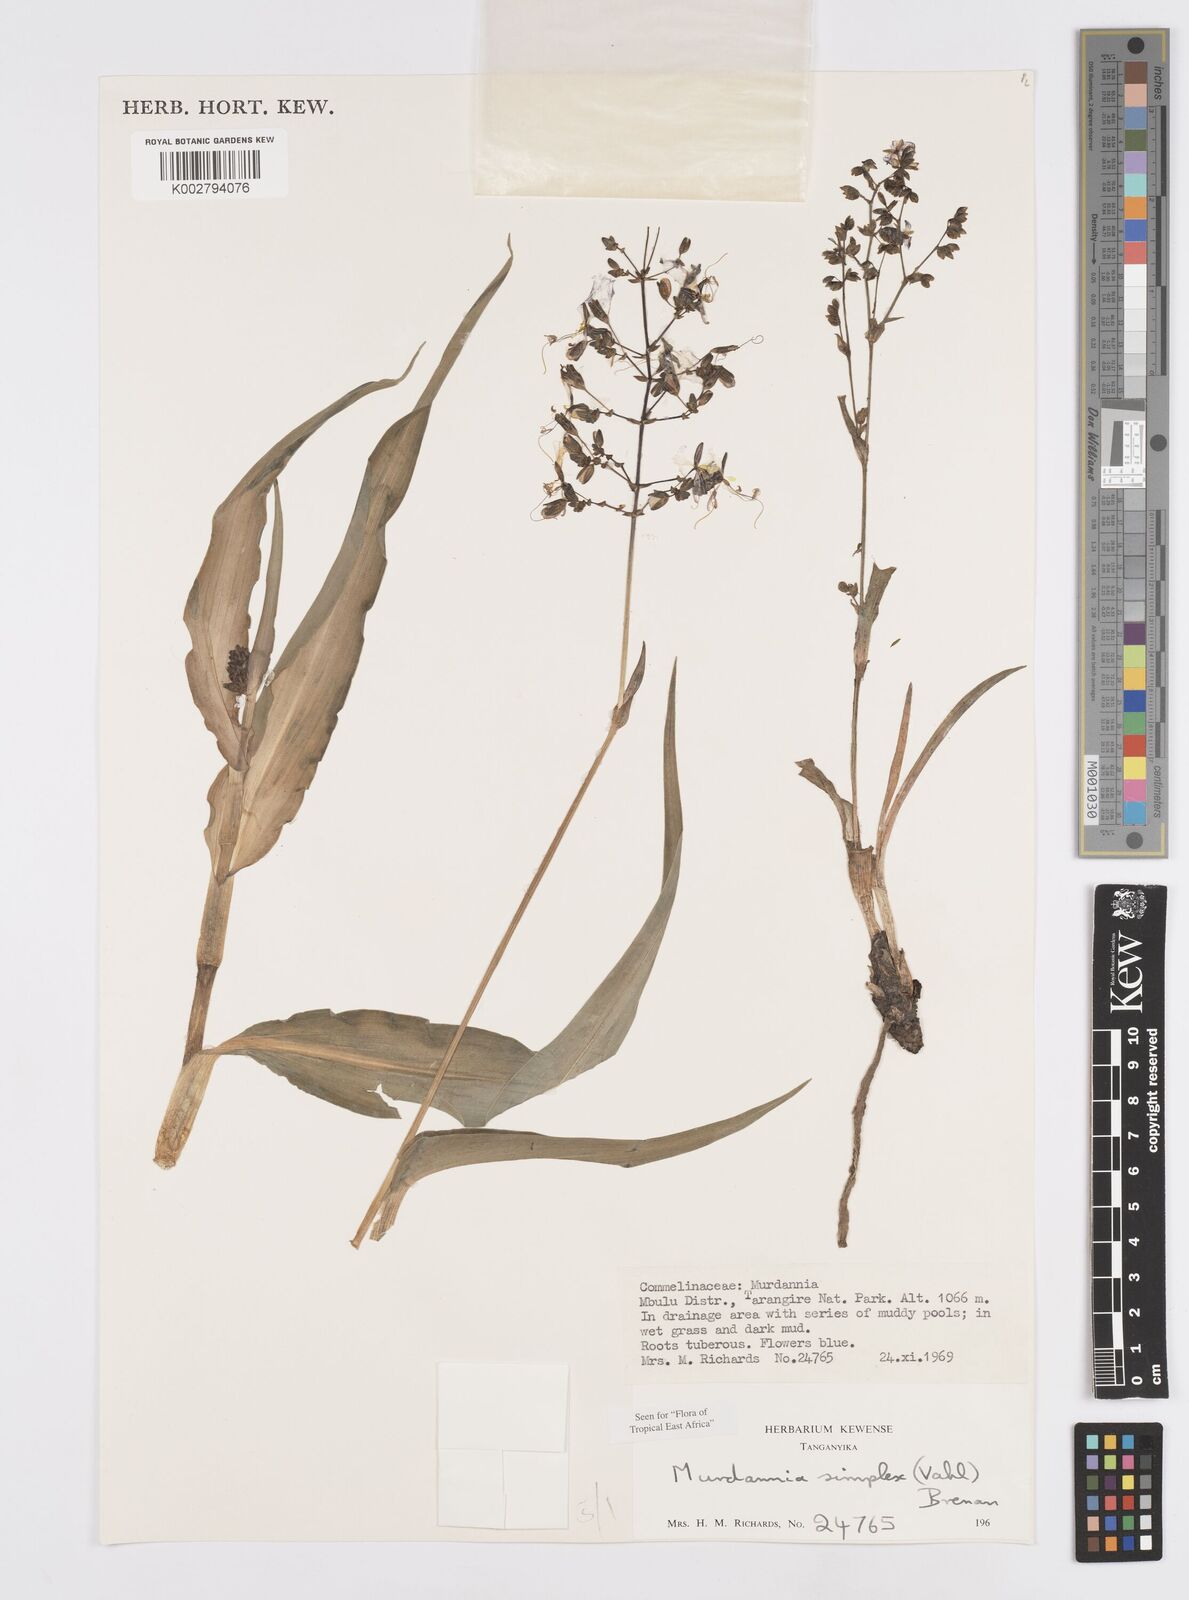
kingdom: Plantae
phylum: Tracheophyta
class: Liliopsida
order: Commelinales
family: Commelinaceae
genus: Murdannia
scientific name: Murdannia simplex
